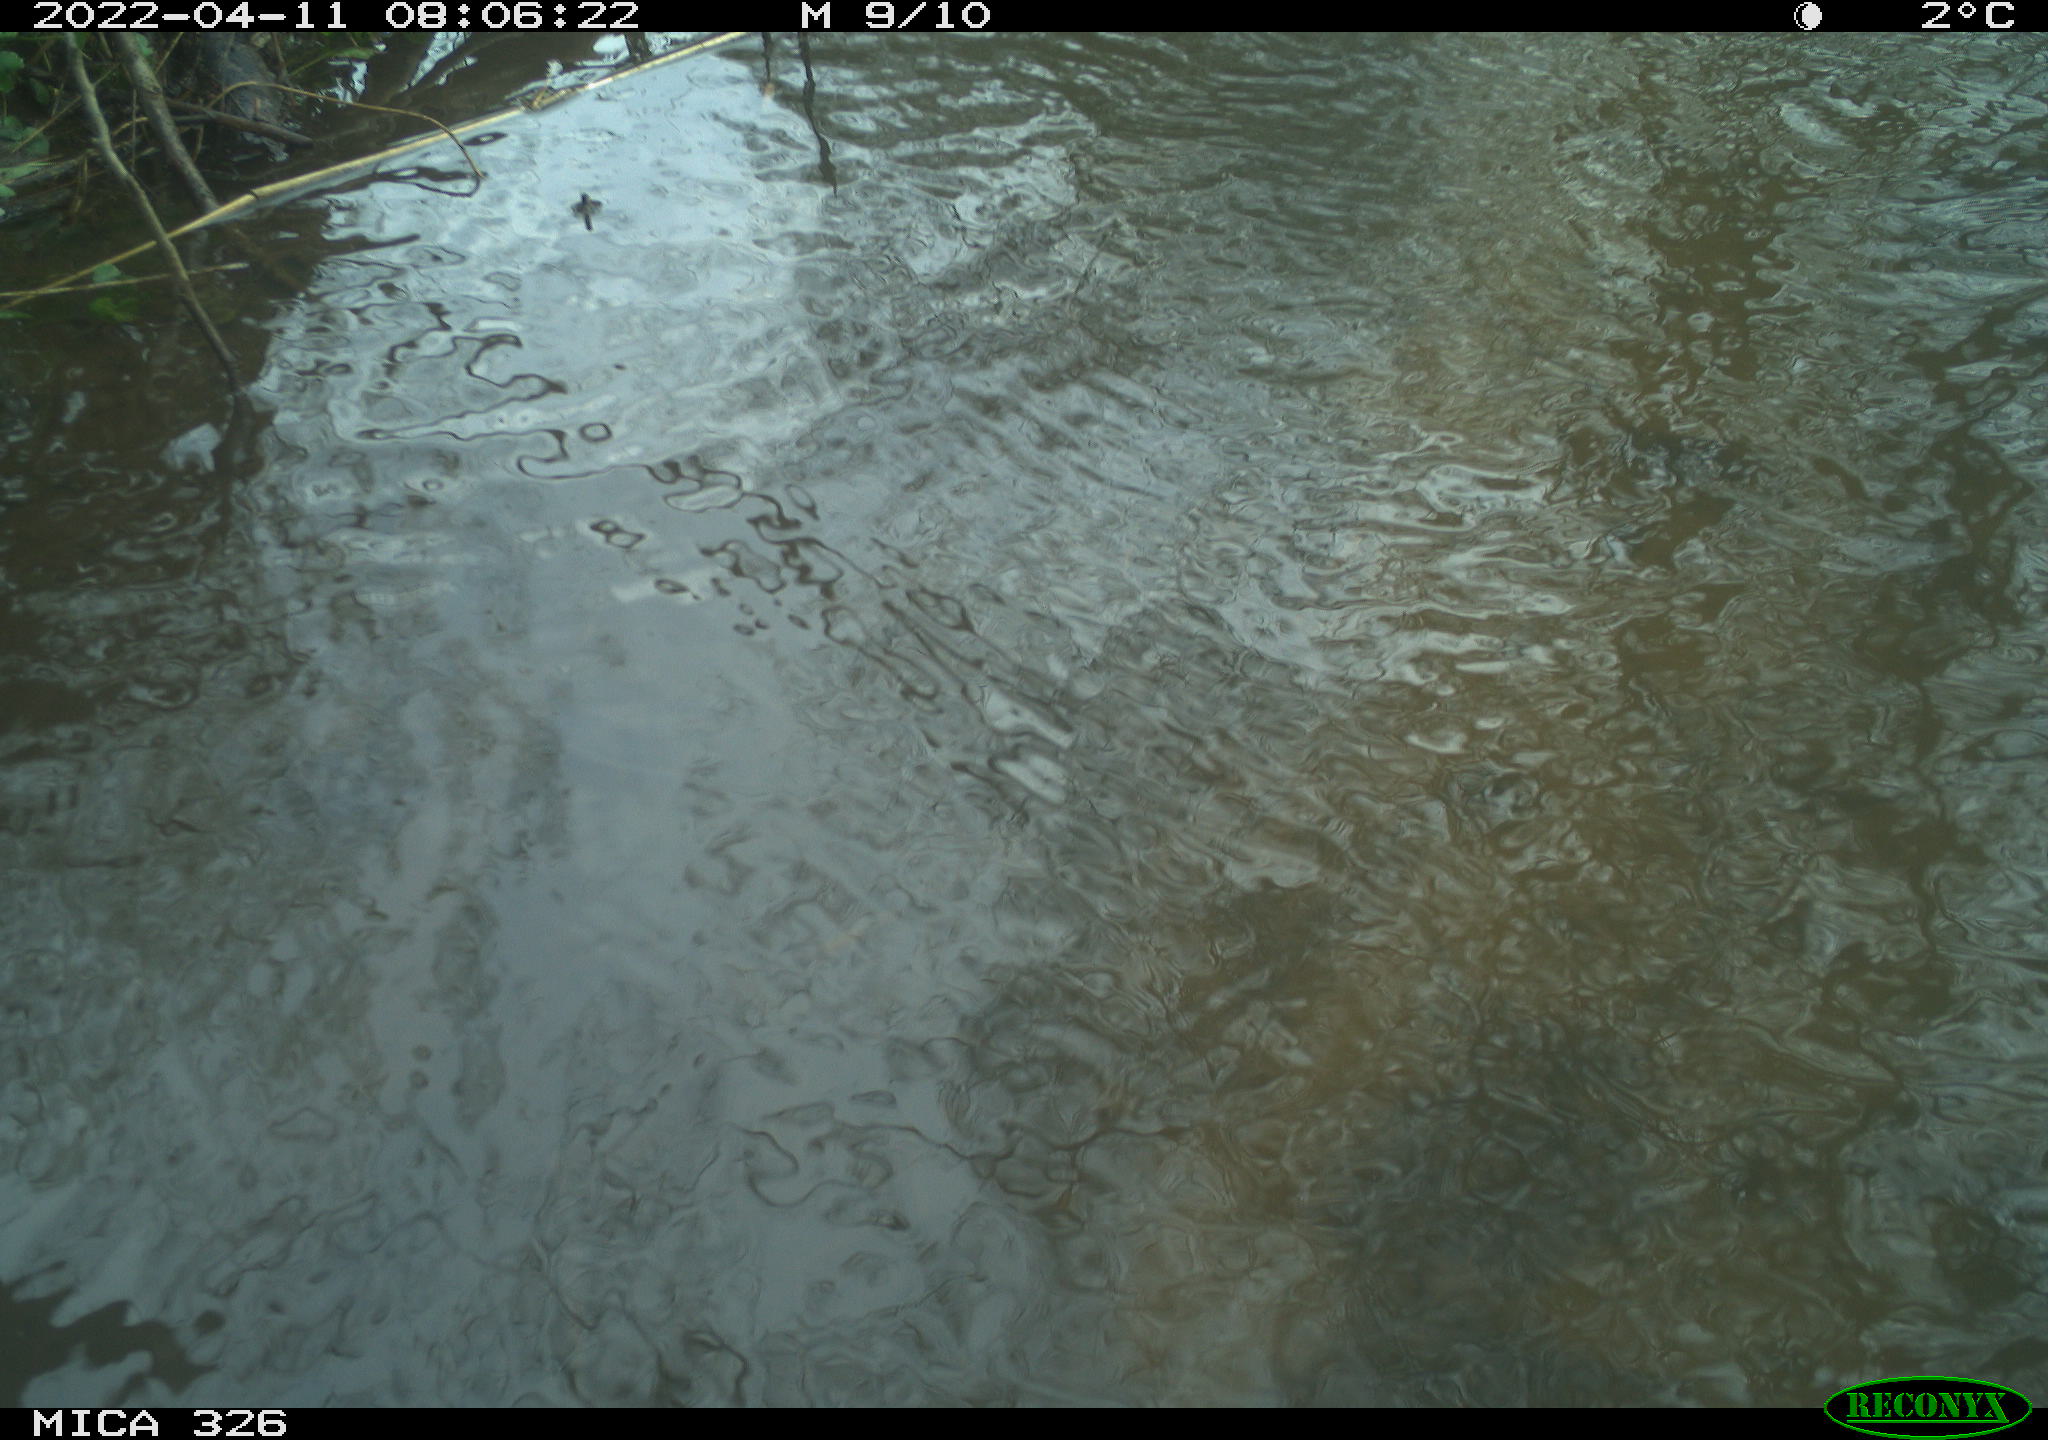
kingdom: Animalia
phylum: Chordata
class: Mammalia
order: Rodentia
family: Cricetidae
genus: Ondatra
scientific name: Ondatra zibethicus
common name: Muskrat
